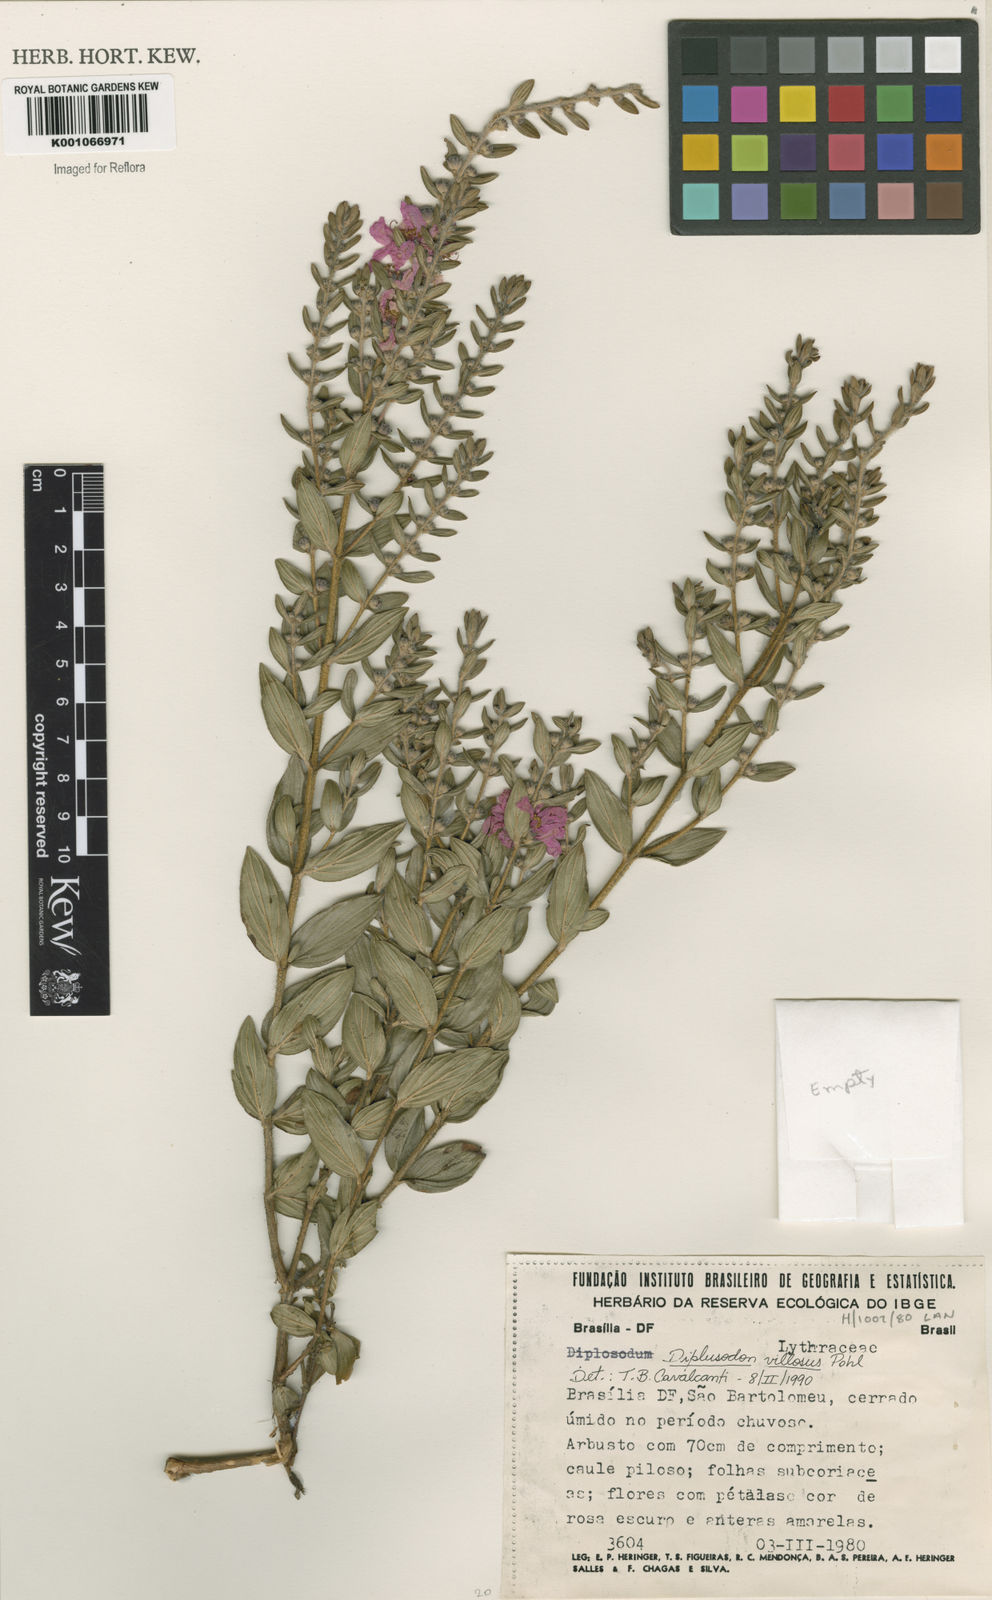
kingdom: Plantae
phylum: Tracheophyta
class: Magnoliopsida
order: Myrtales
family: Lythraceae
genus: Diplusodon
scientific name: Diplusodon villosus
